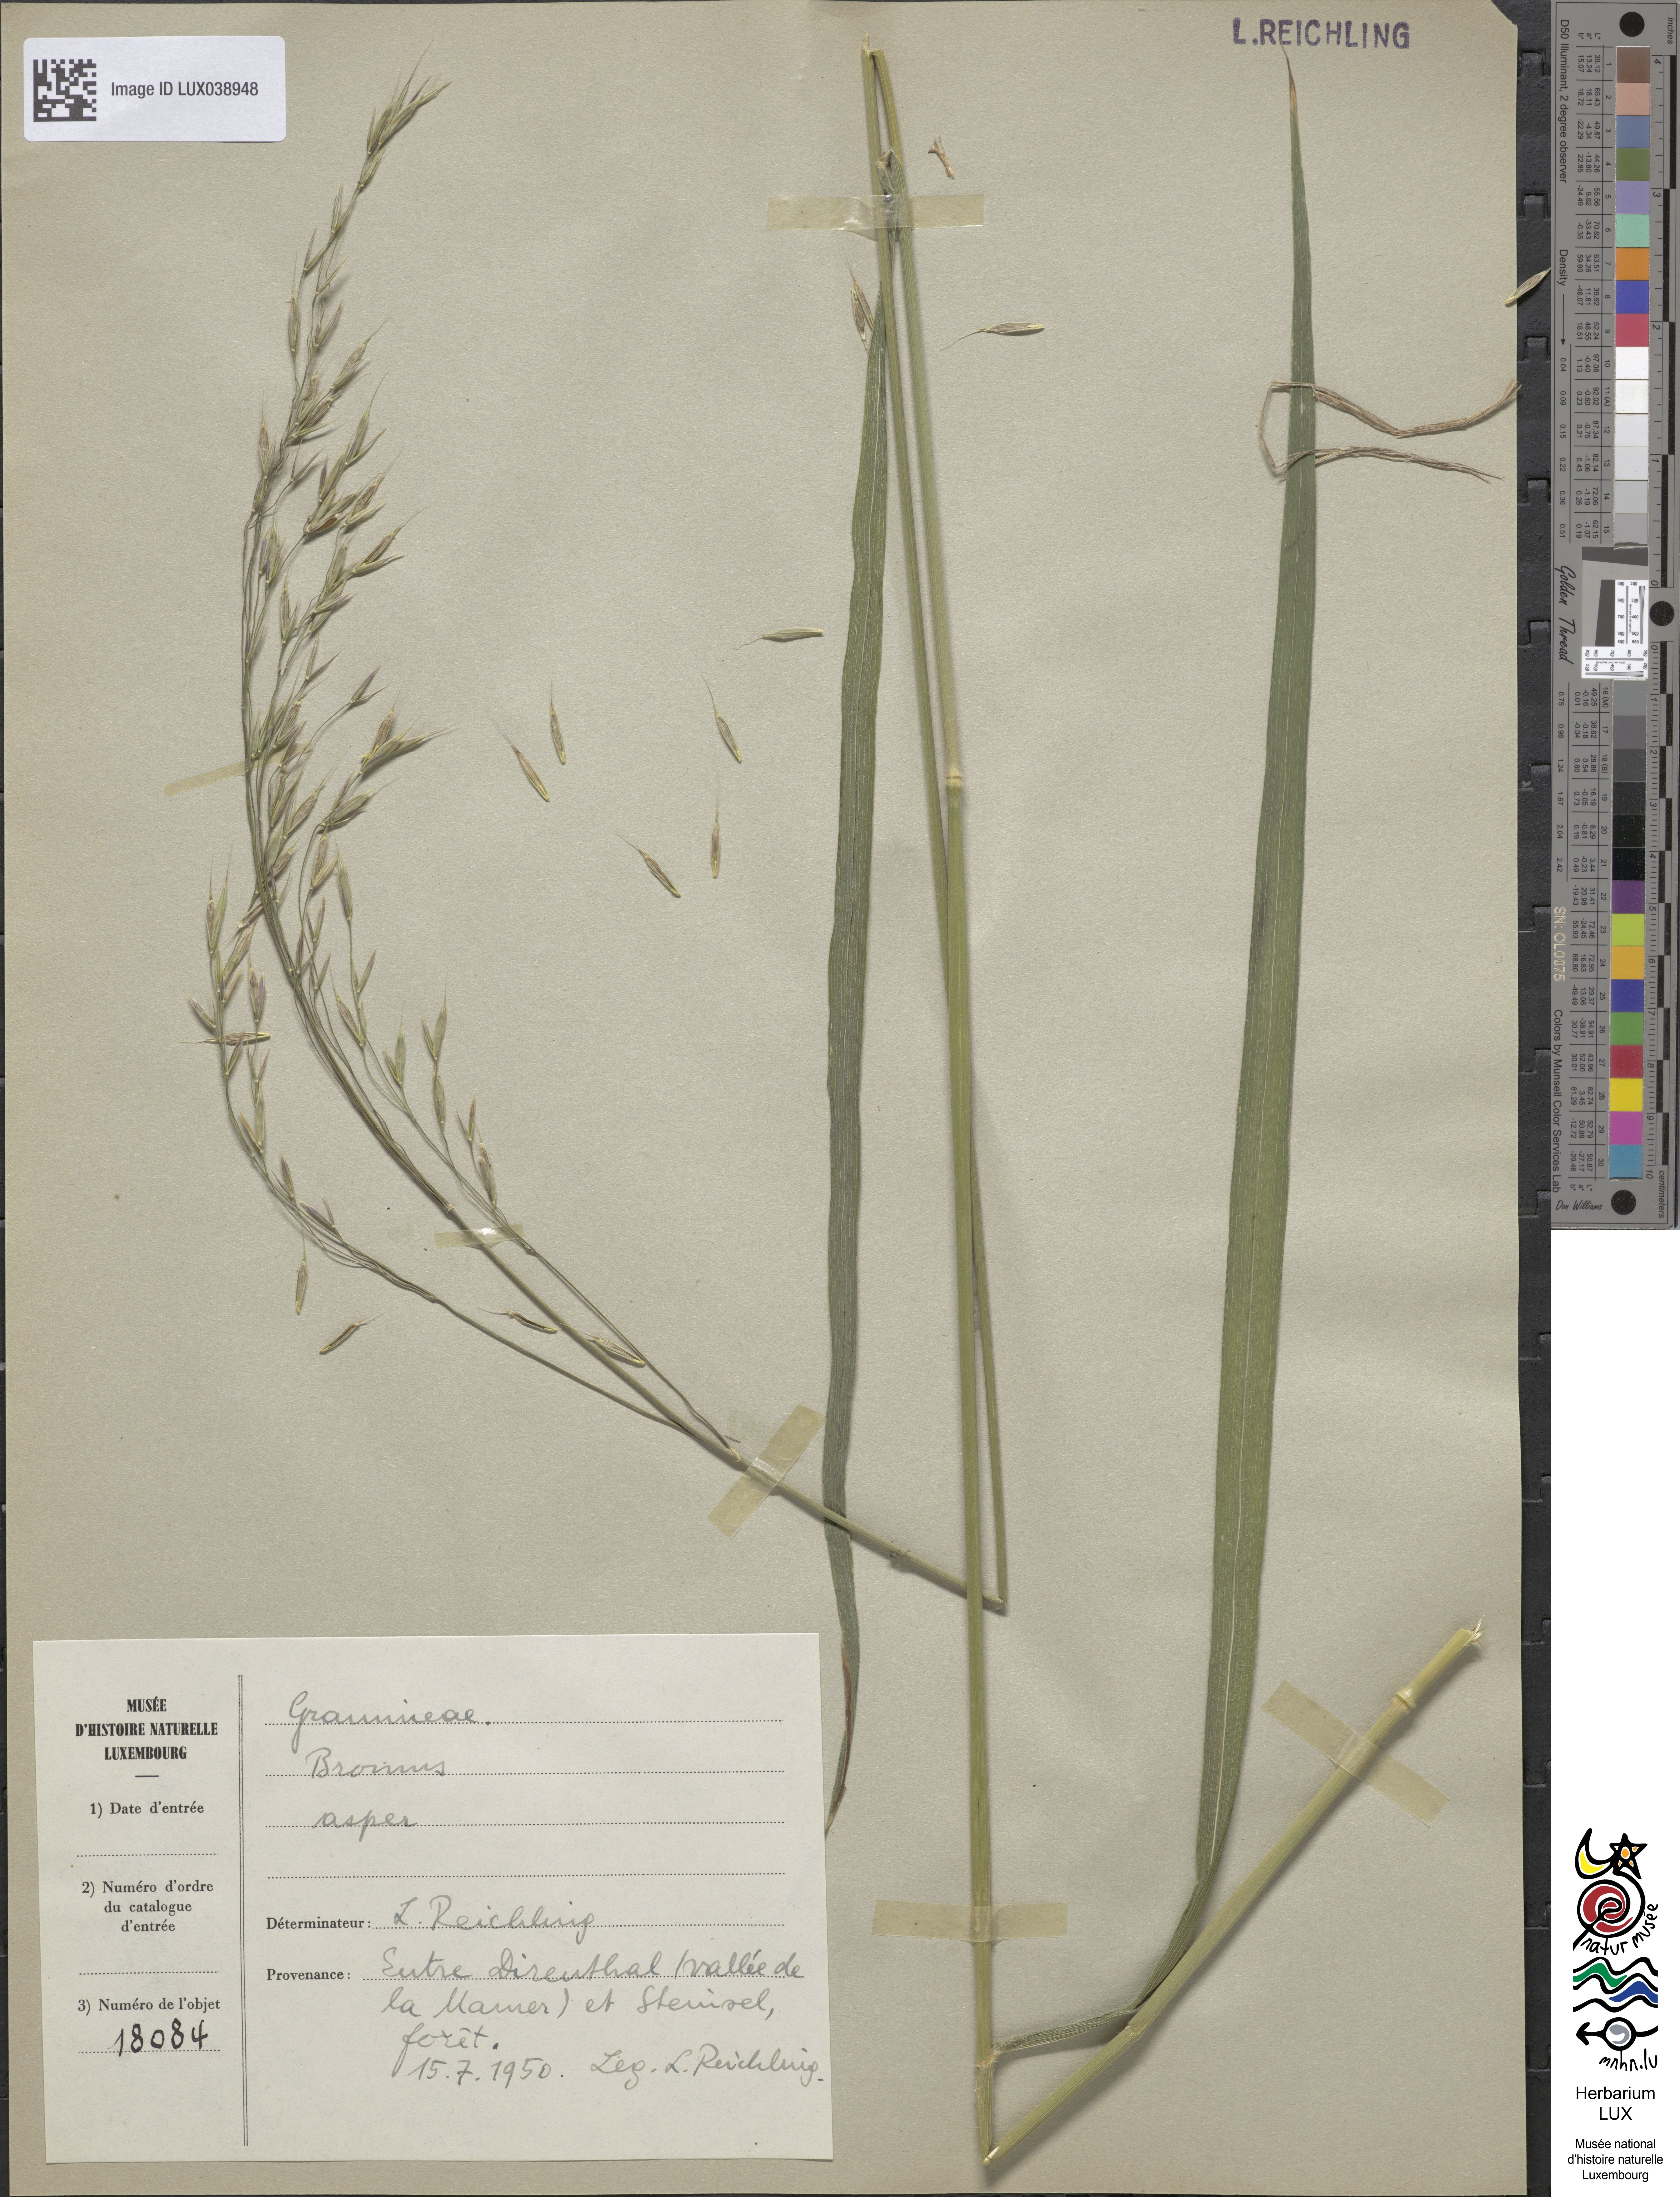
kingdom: Plantae
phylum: Tracheophyta
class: Liliopsida
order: Poales
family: Poaceae
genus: Bromus
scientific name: Bromus ramosus
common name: Hairy brome
